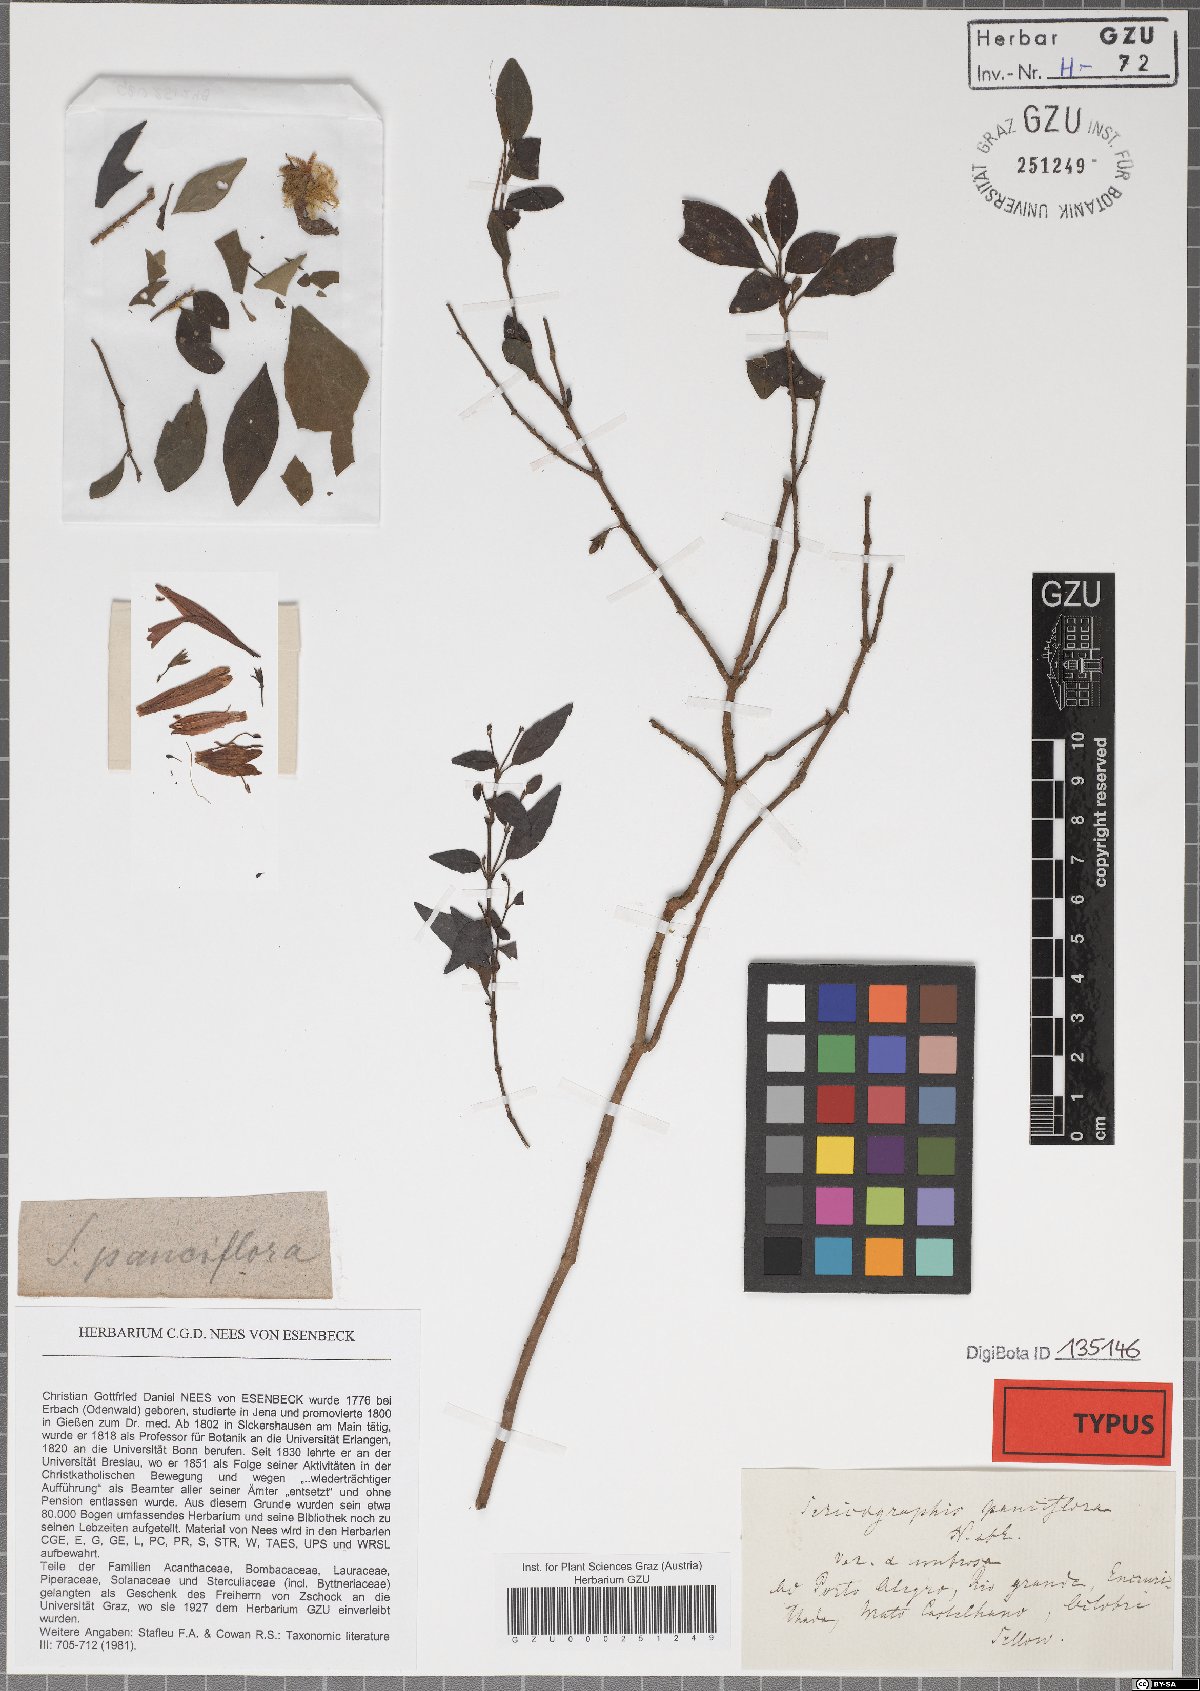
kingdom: Plantae
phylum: Tracheophyta
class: Magnoliopsida
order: Lamiales
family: Acanthaceae
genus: Justicia
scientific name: Justicia floribunda
